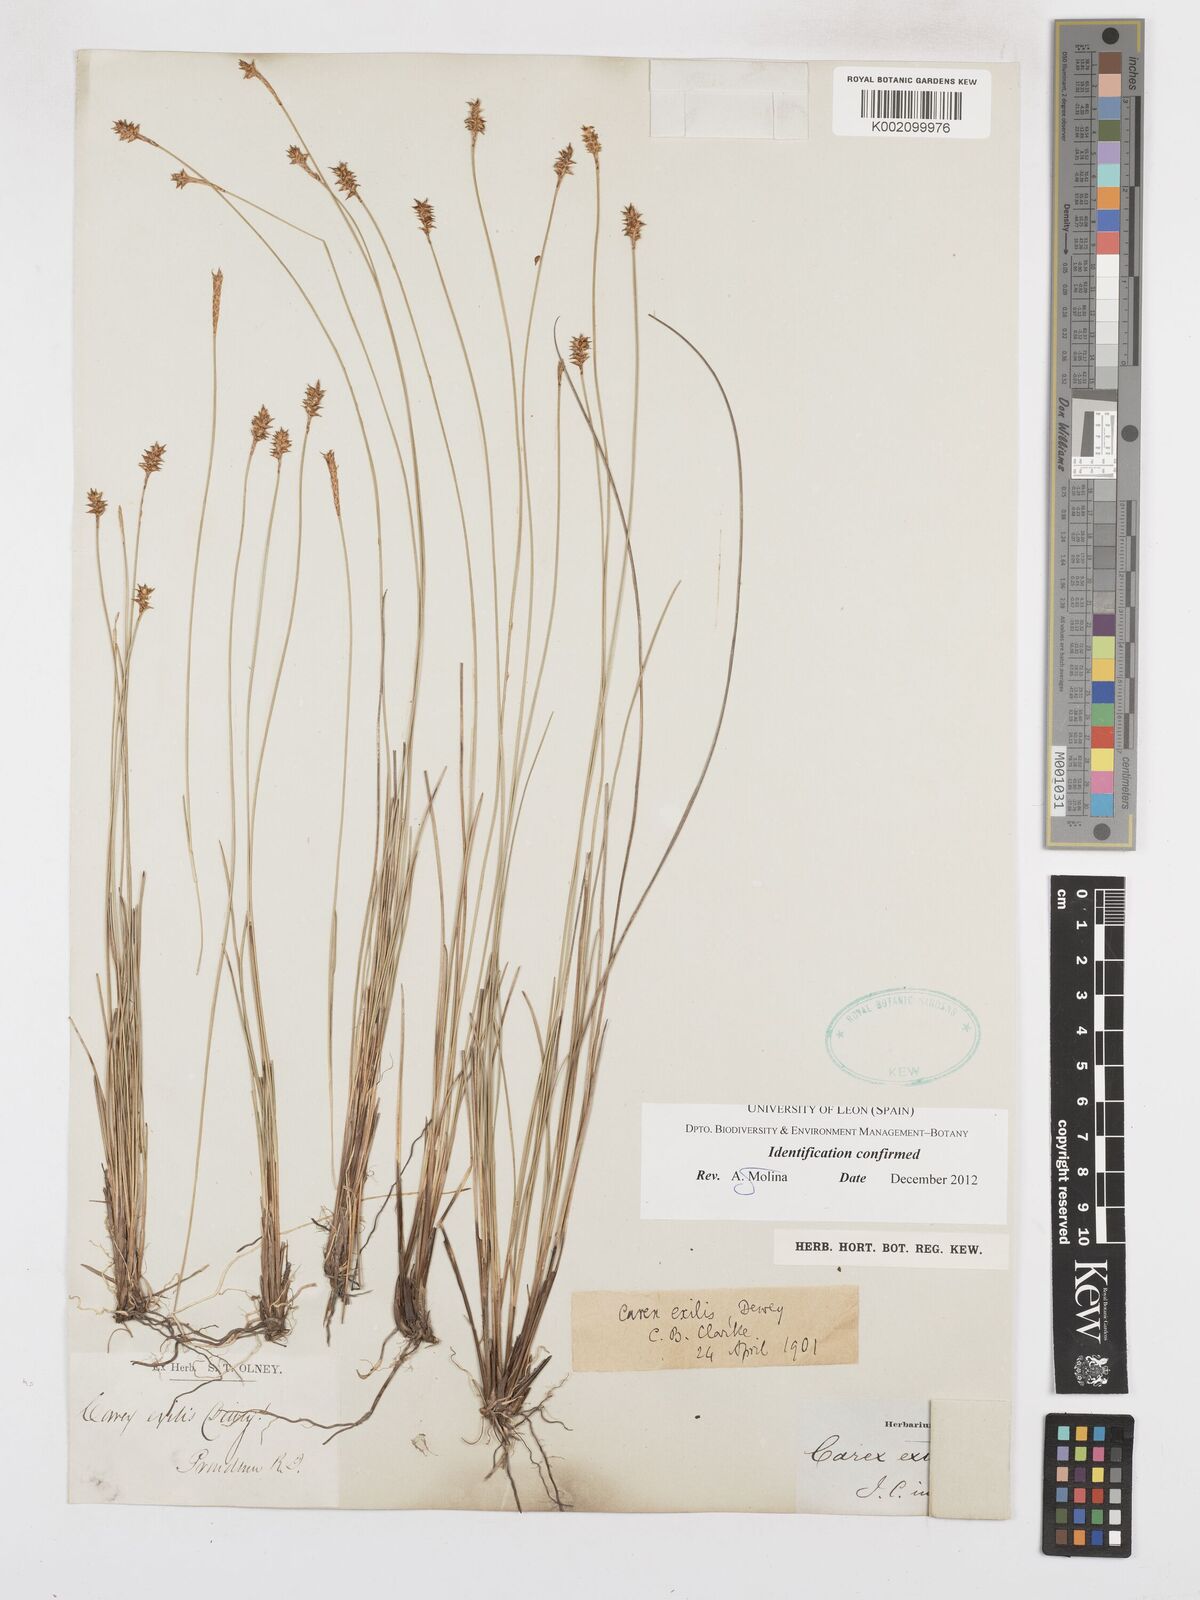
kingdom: Plantae
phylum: Tracheophyta
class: Liliopsida
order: Poales
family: Cyperaceae
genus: Carex
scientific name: Carex exilis
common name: Coastal sedge
